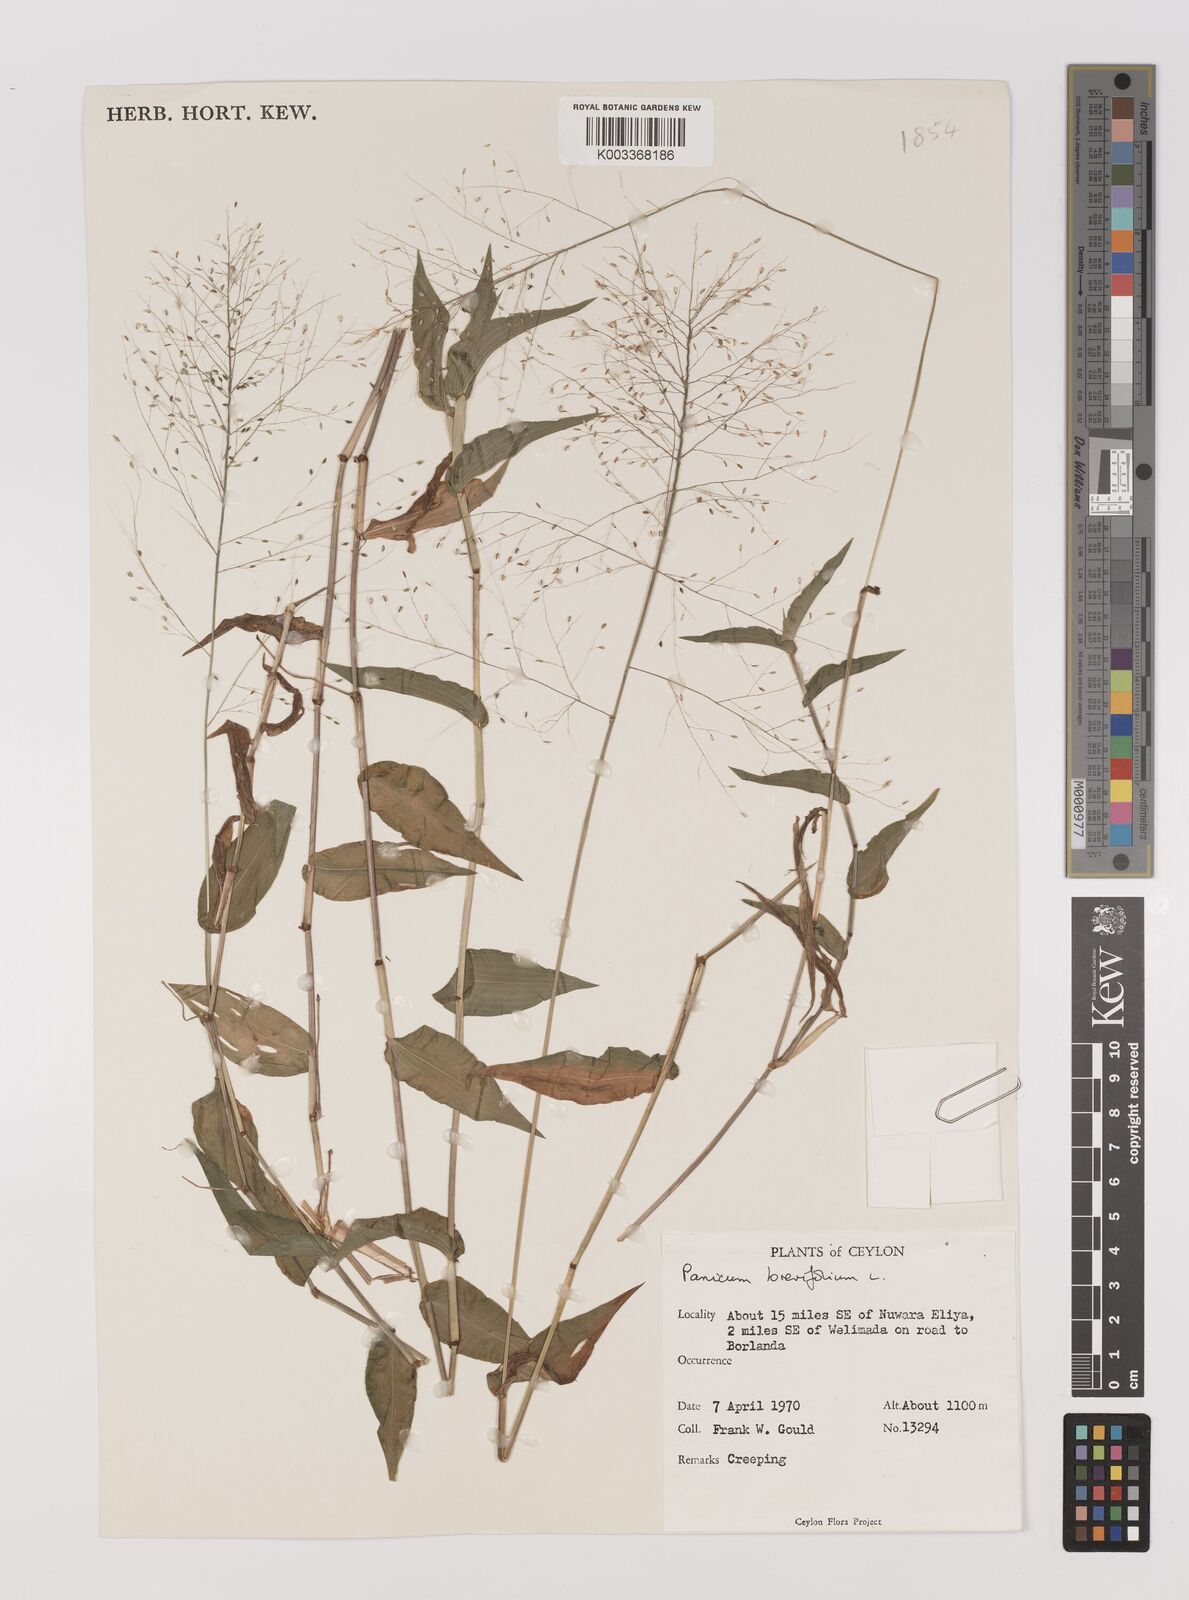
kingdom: Plantae
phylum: Tracheophyta
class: Liliopsida
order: Poales
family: Poaceae
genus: Panicum
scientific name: Panicum brevifolium
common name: Shortleaf panic grass
